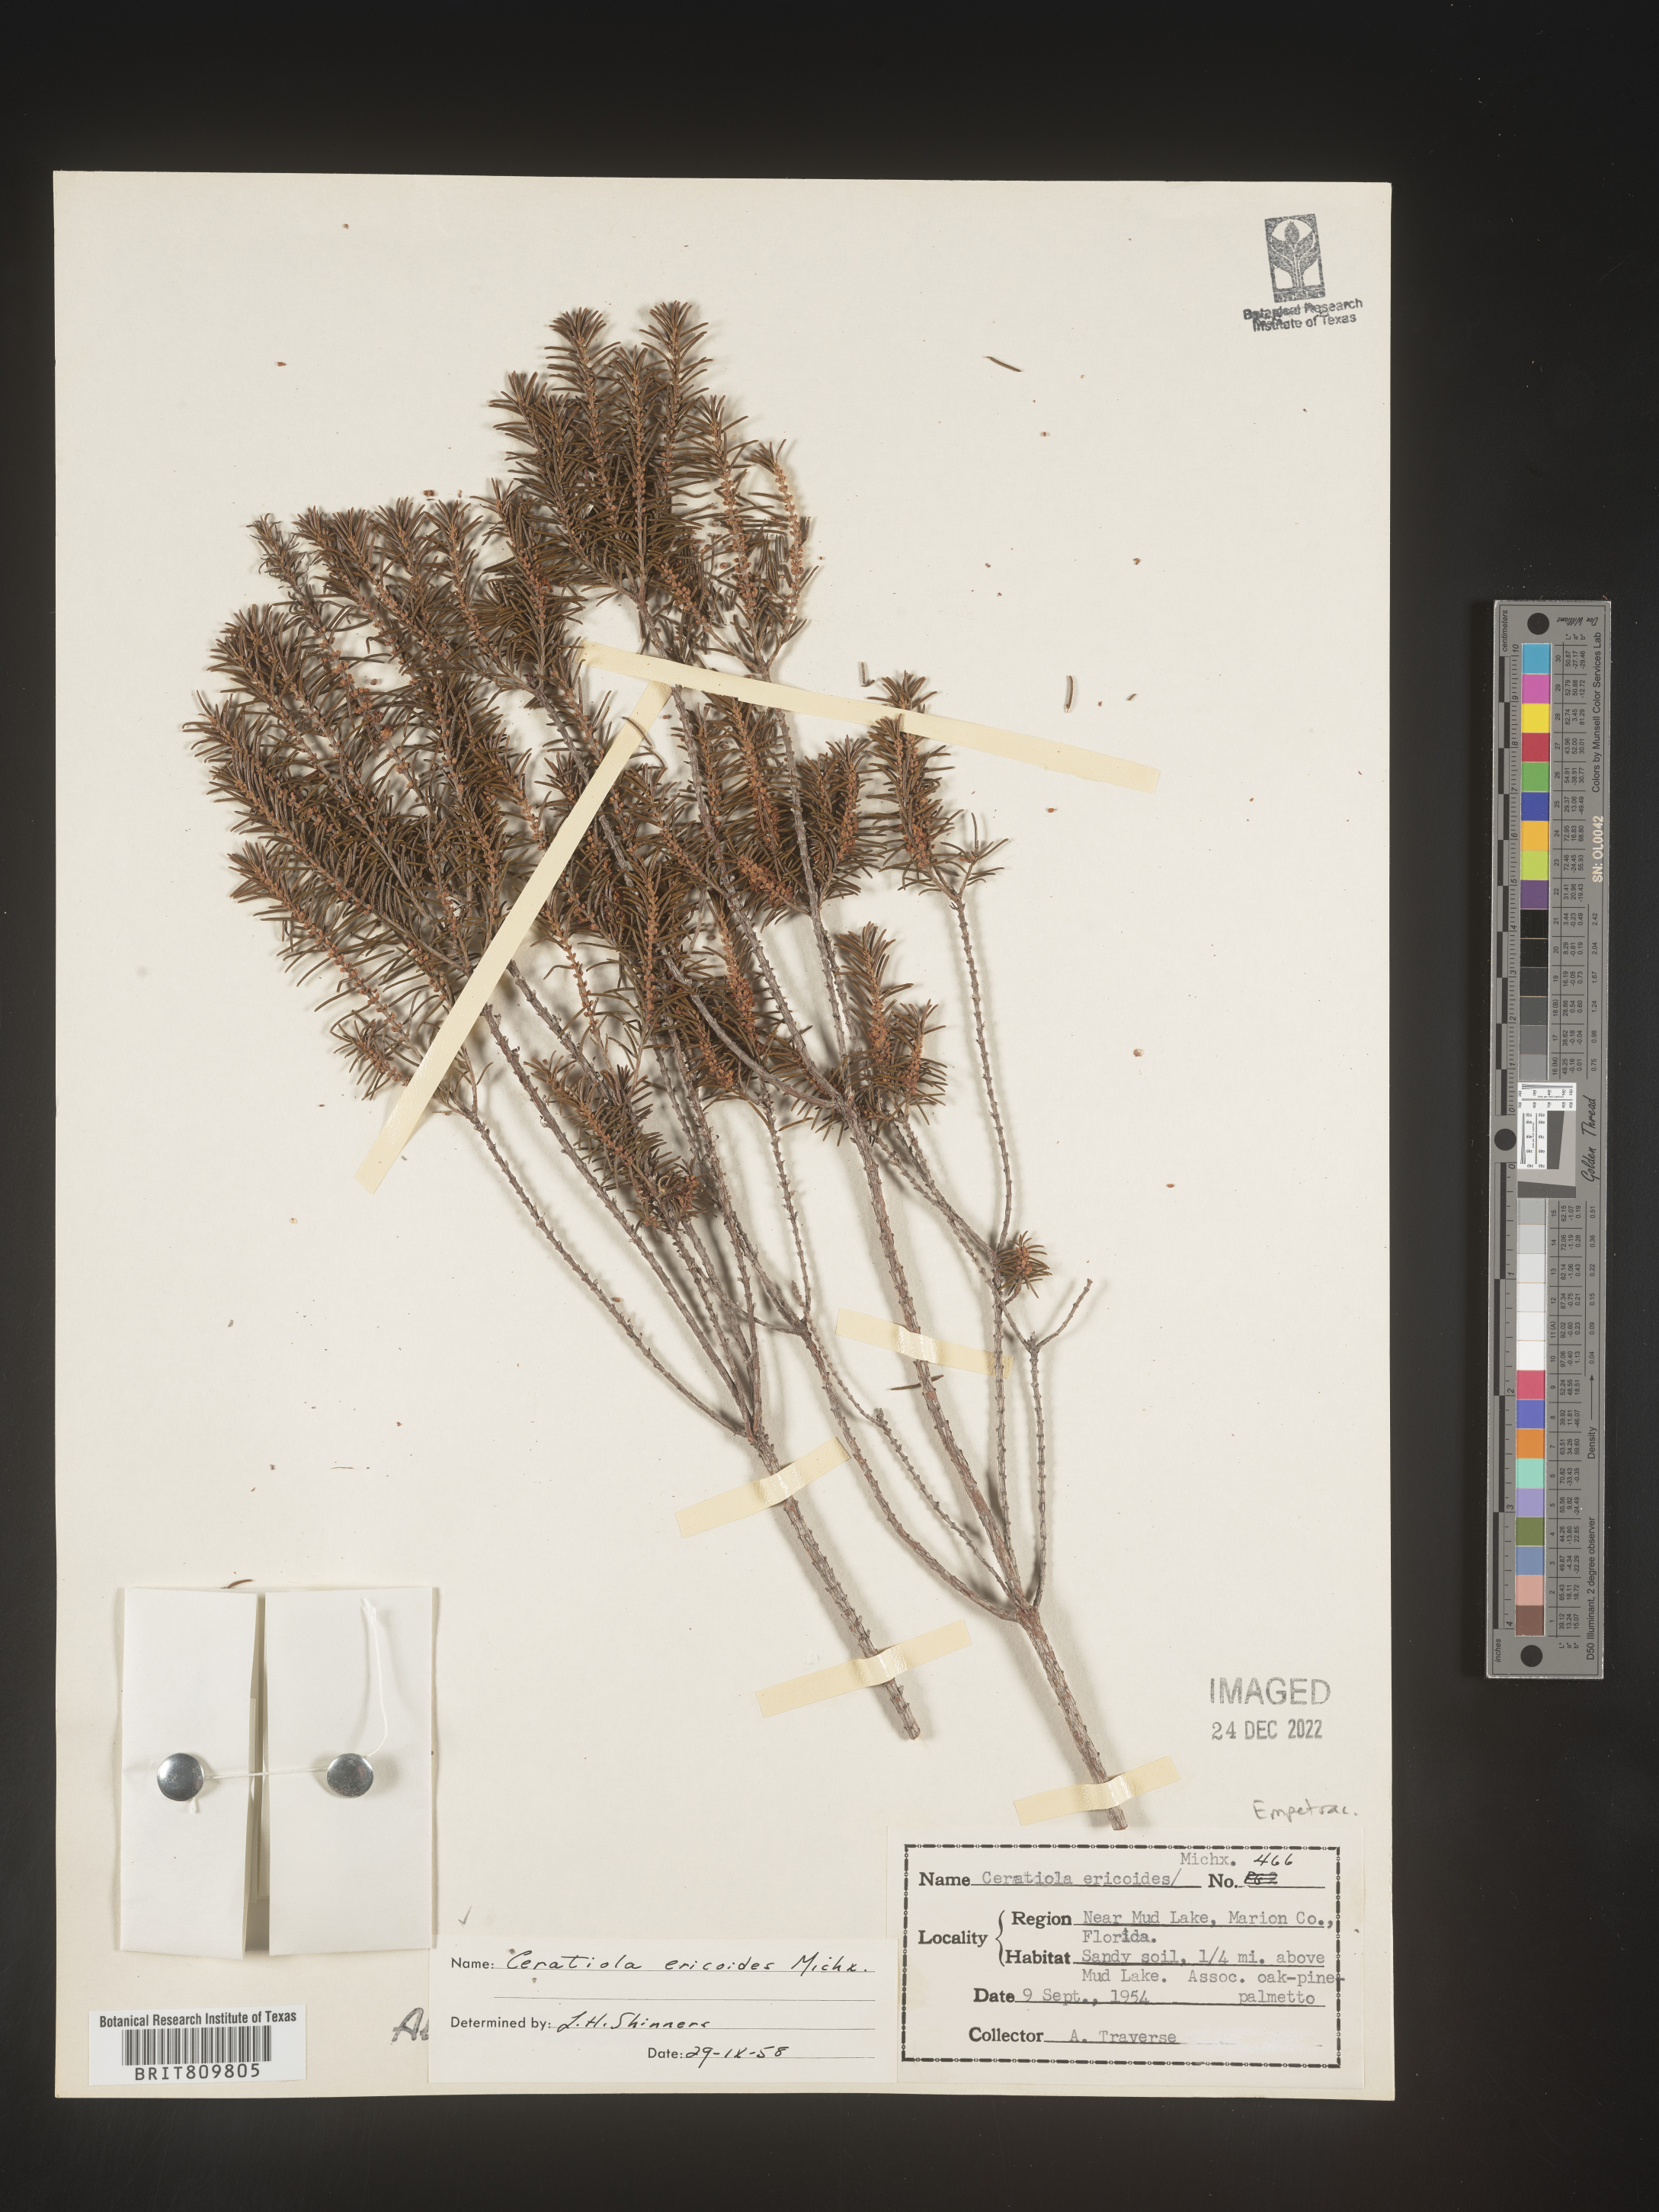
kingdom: Plantae
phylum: Tracheophyta
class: Magnoliopsida
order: Ericales
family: Ericaceae
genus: Ceratiola
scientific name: Ceratiola ericoides
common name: Sandhill-rosemary
